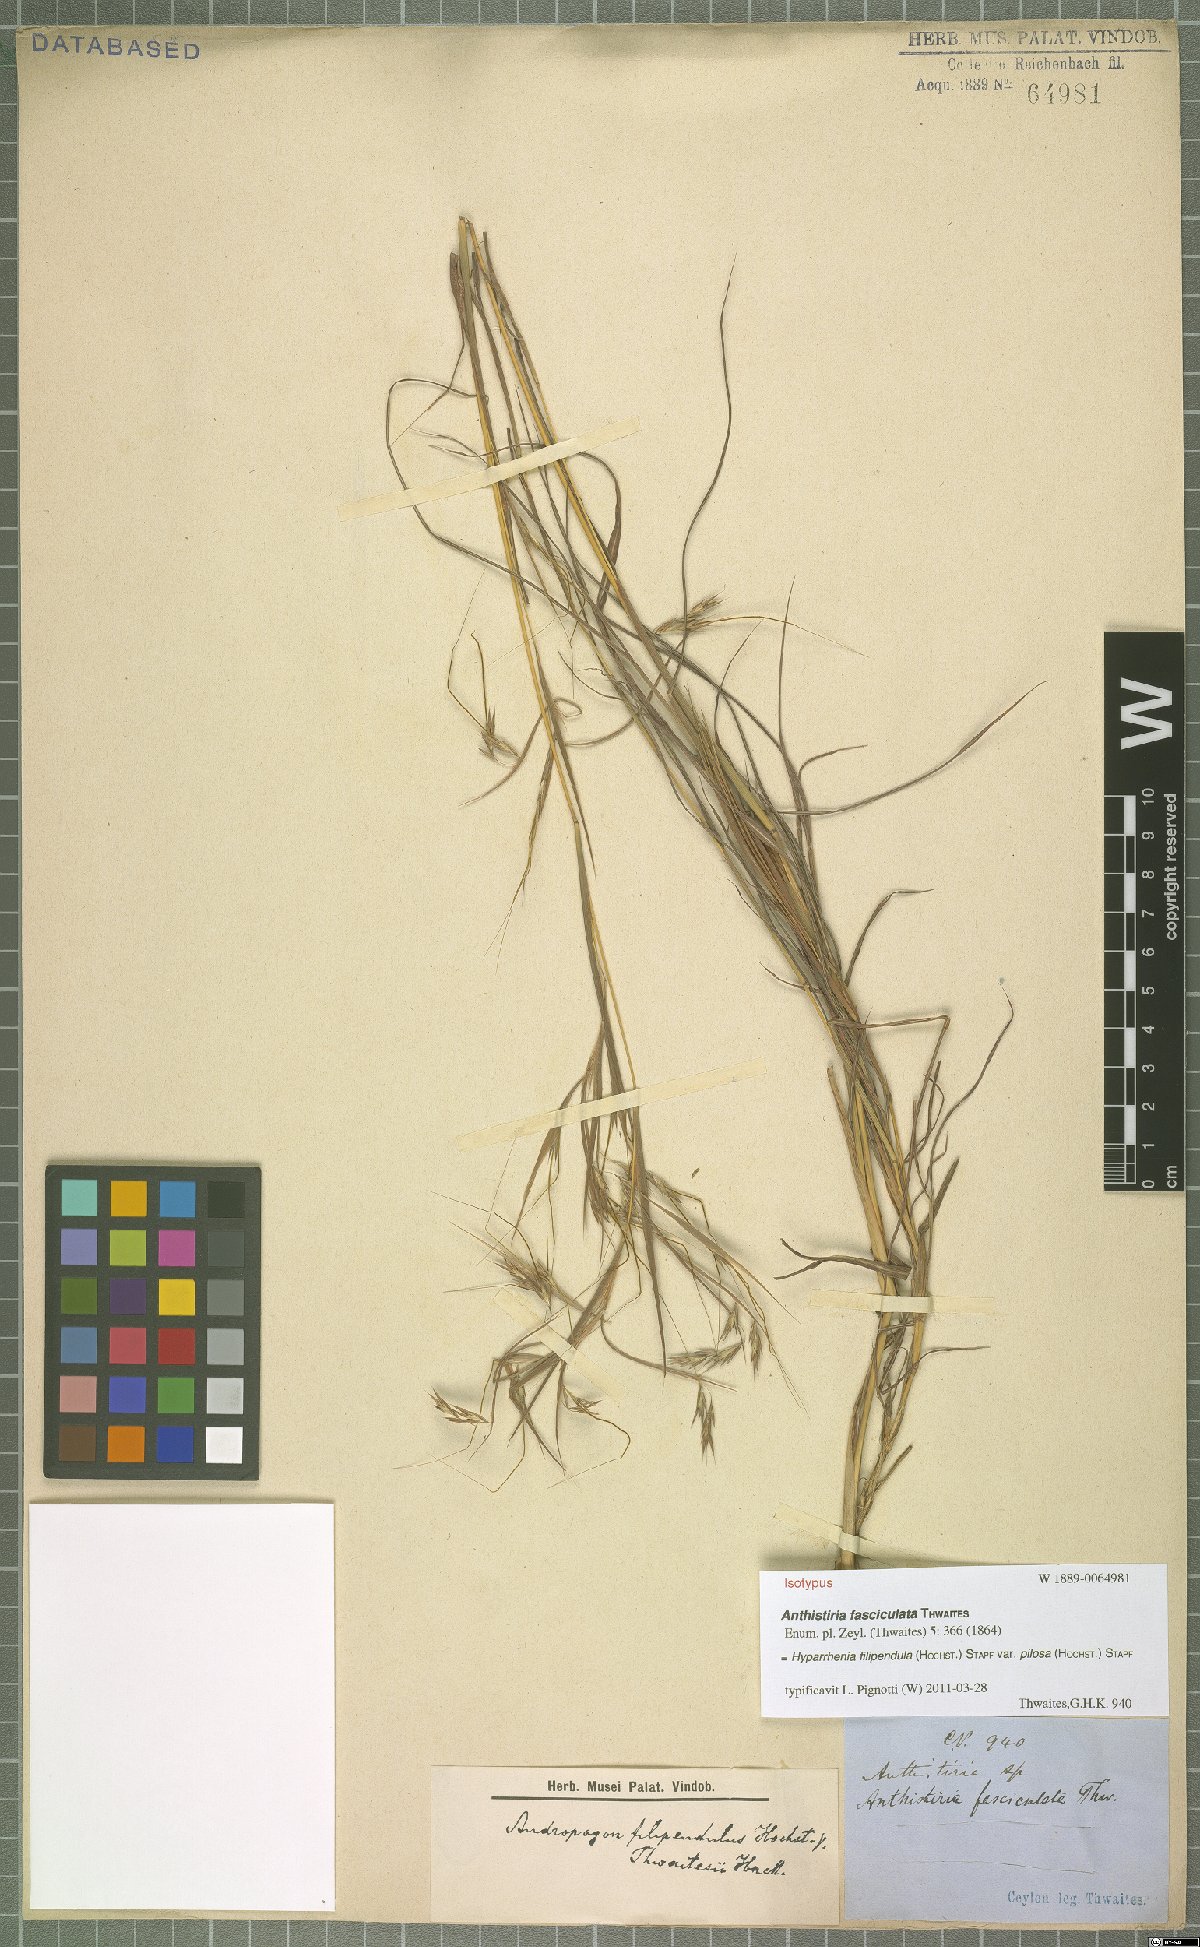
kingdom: Plantae
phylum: Tracheophyta
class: Liliopsida
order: Poales
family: Poaceae
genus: Hyparrhenia
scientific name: Hyparrhenia filipendula
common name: Tambookie grass
